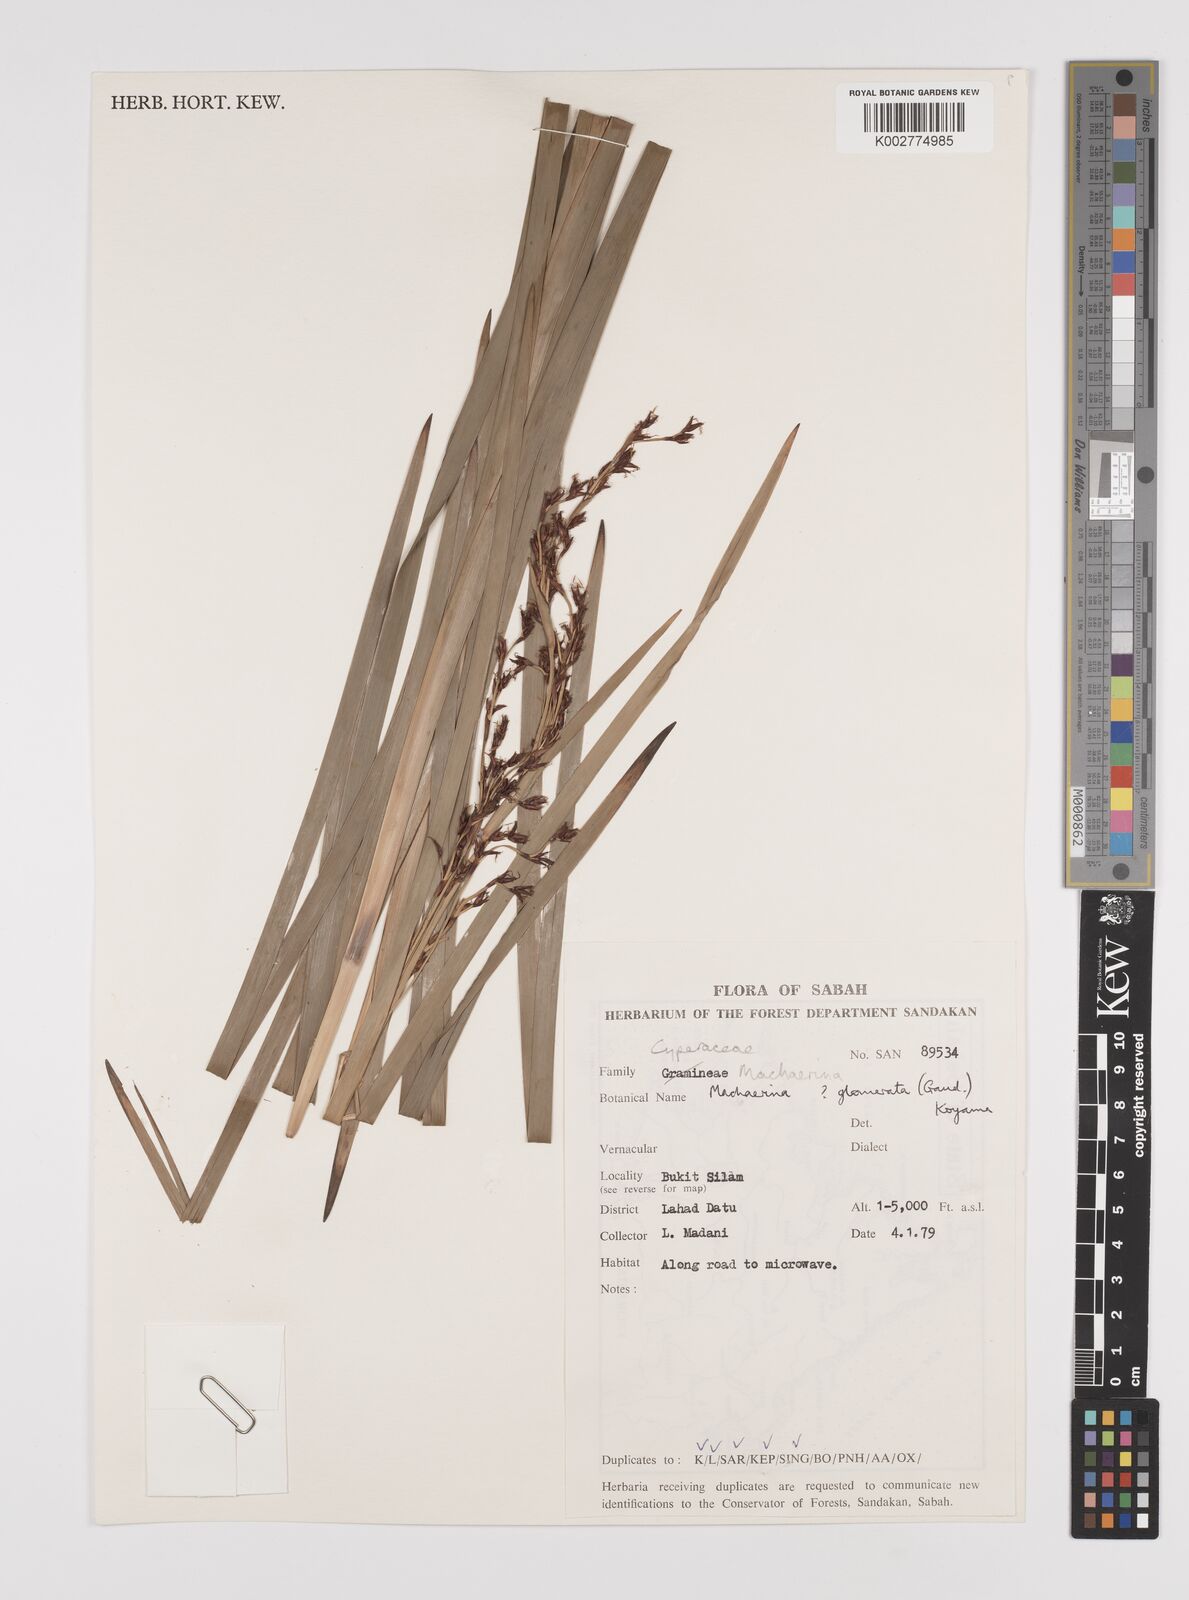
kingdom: Plantae
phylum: Tracheophyta
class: Liliopsida
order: Poales
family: Cyperaceae
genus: Machaerina
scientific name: Machaerina glomerata
